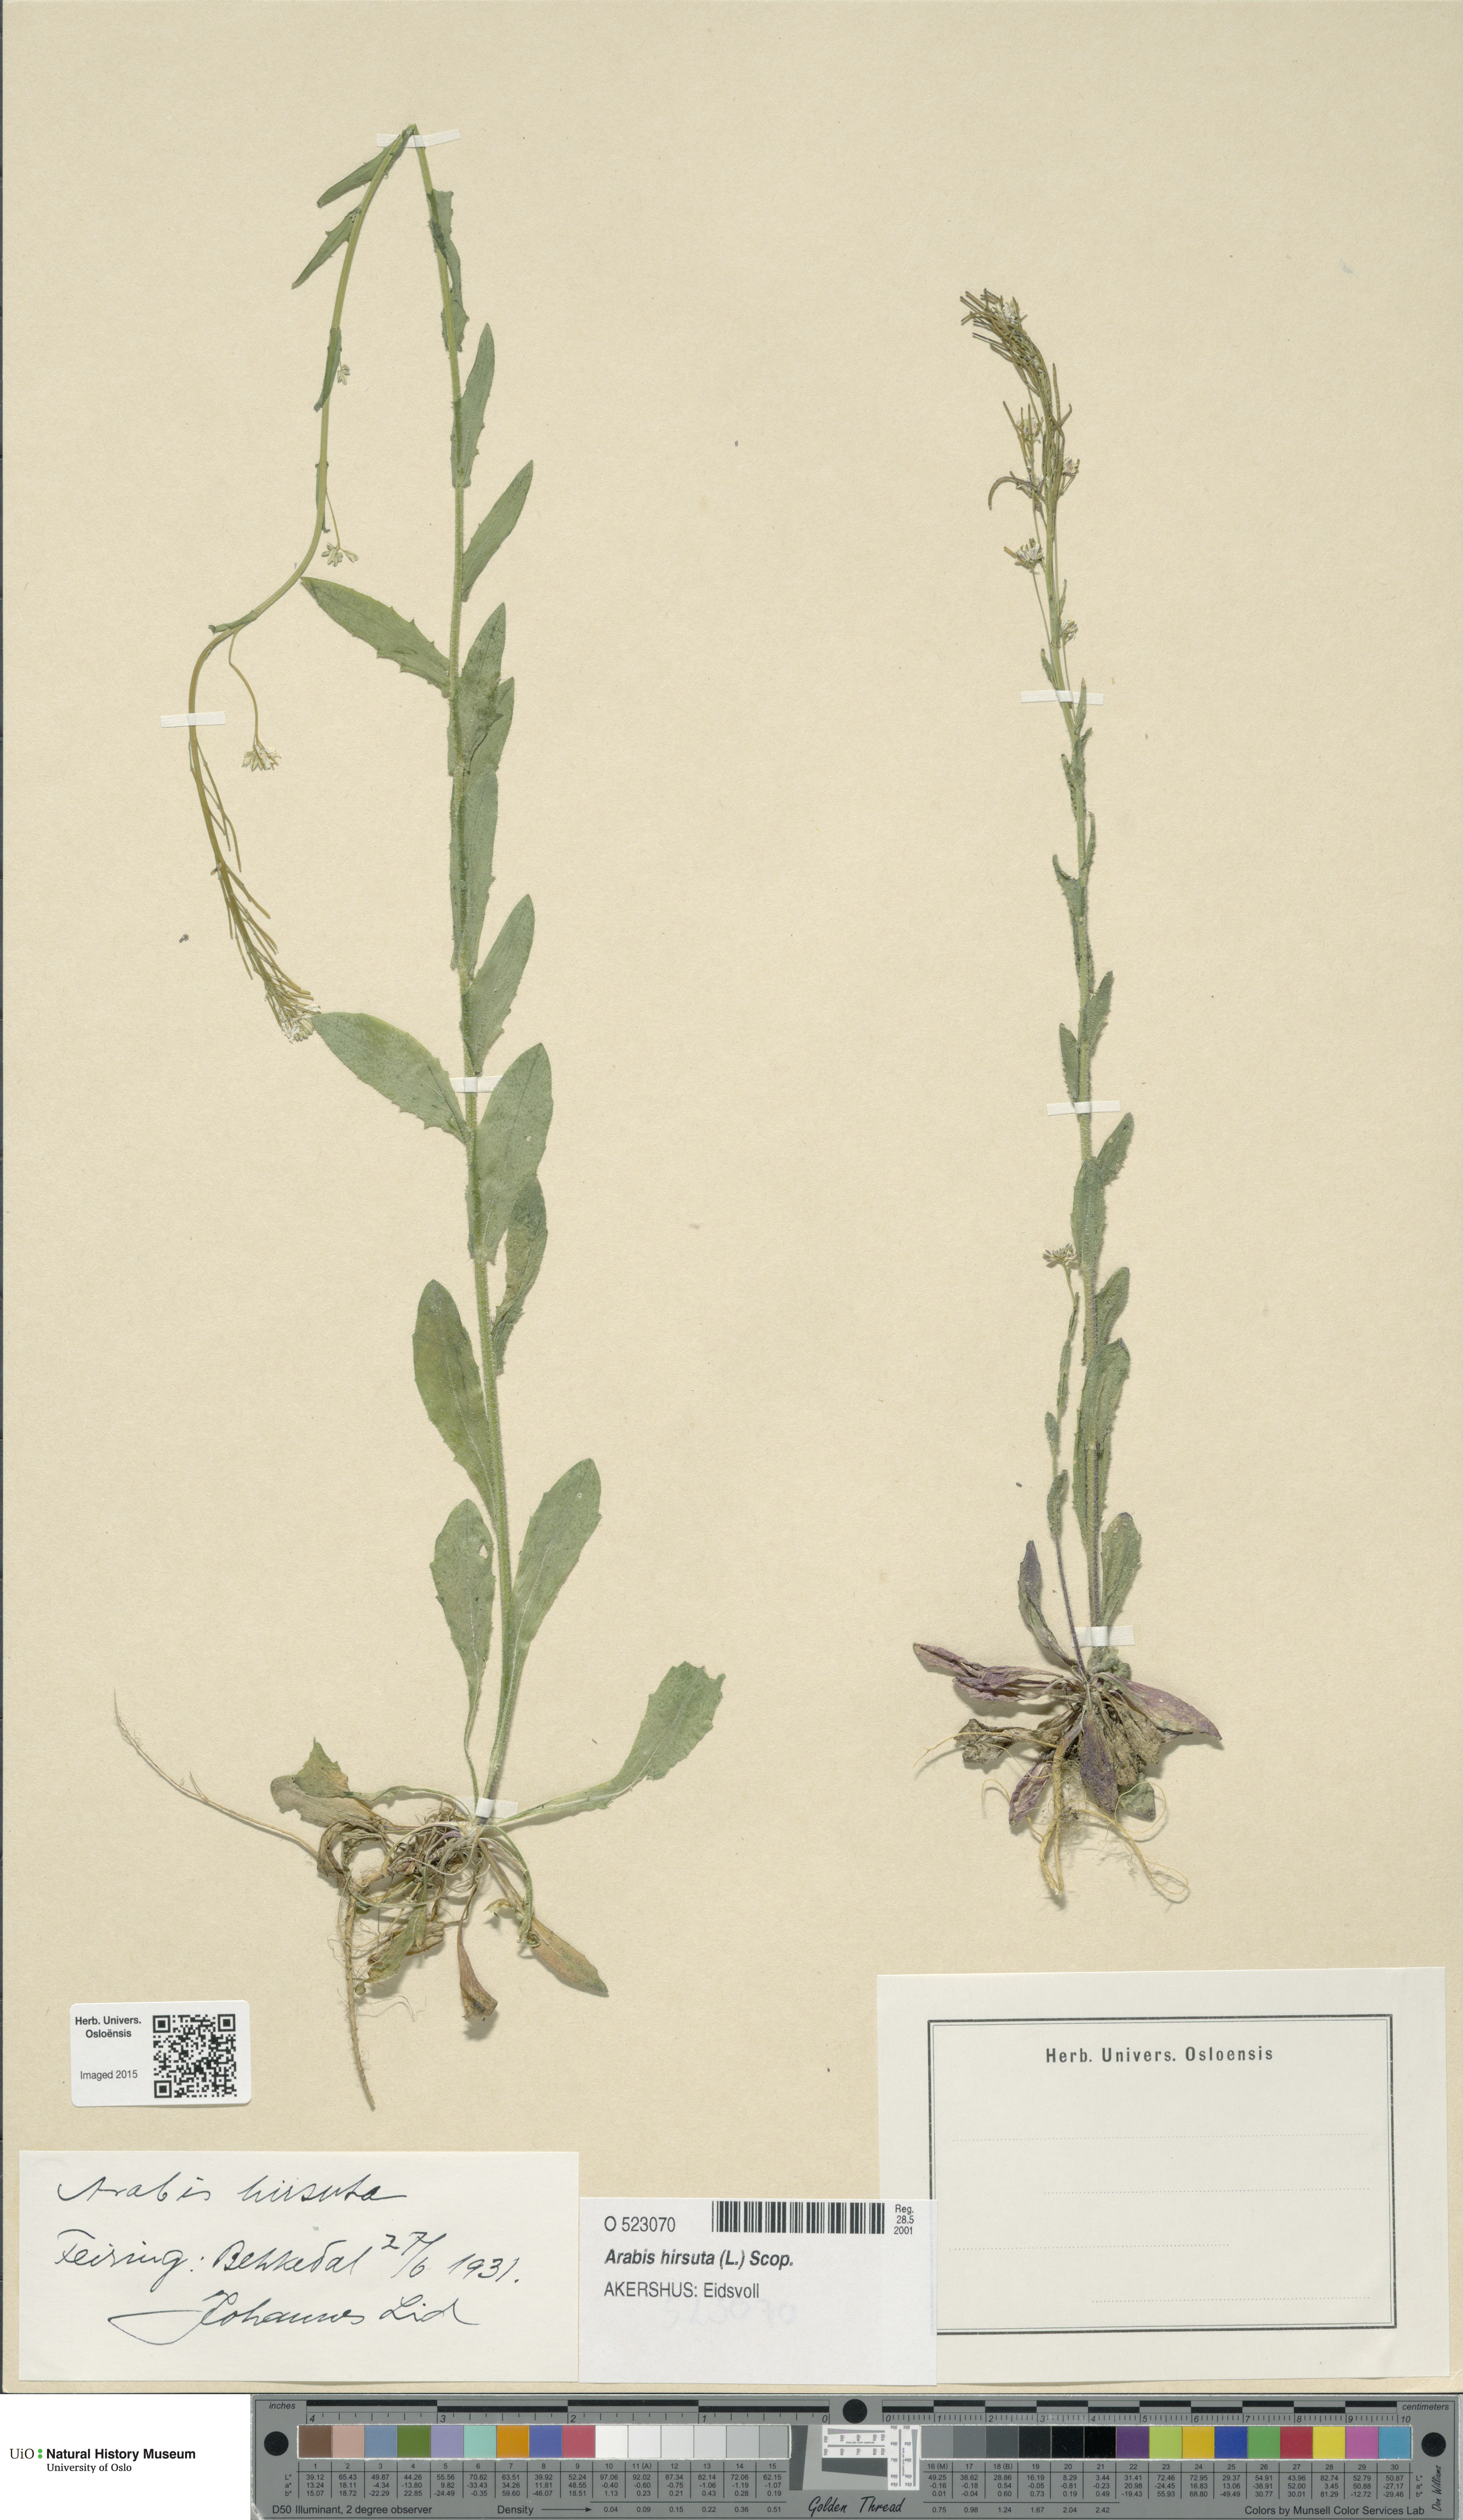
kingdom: Plantae
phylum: Tracheophyta
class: Magnoliopsida
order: Brassicales
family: Brassicaceae
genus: Arabis
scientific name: Arabis hirsuta
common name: Hairy rock-cress
